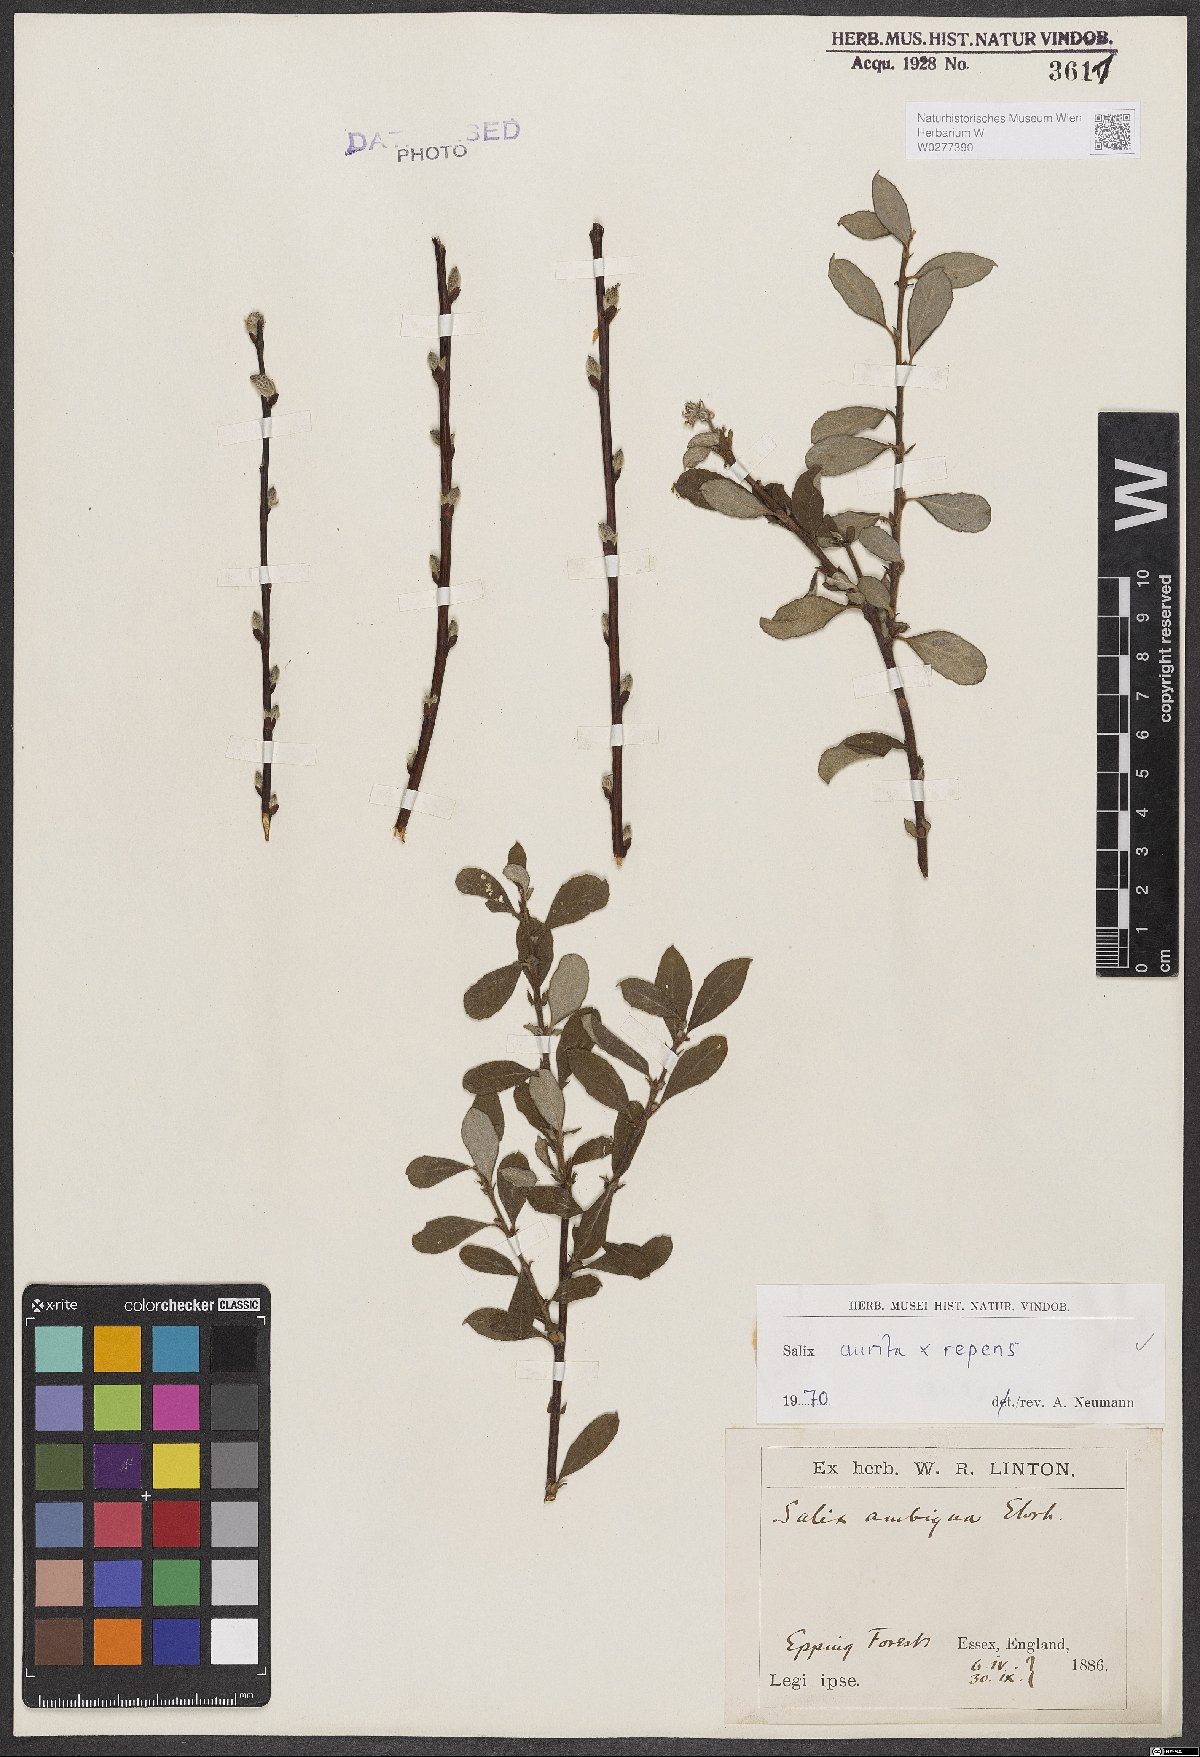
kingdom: Plantae
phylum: Tracheophyta
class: Magnoliopsida
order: Malpighiales
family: Salicaceae
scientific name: Salicaceae
